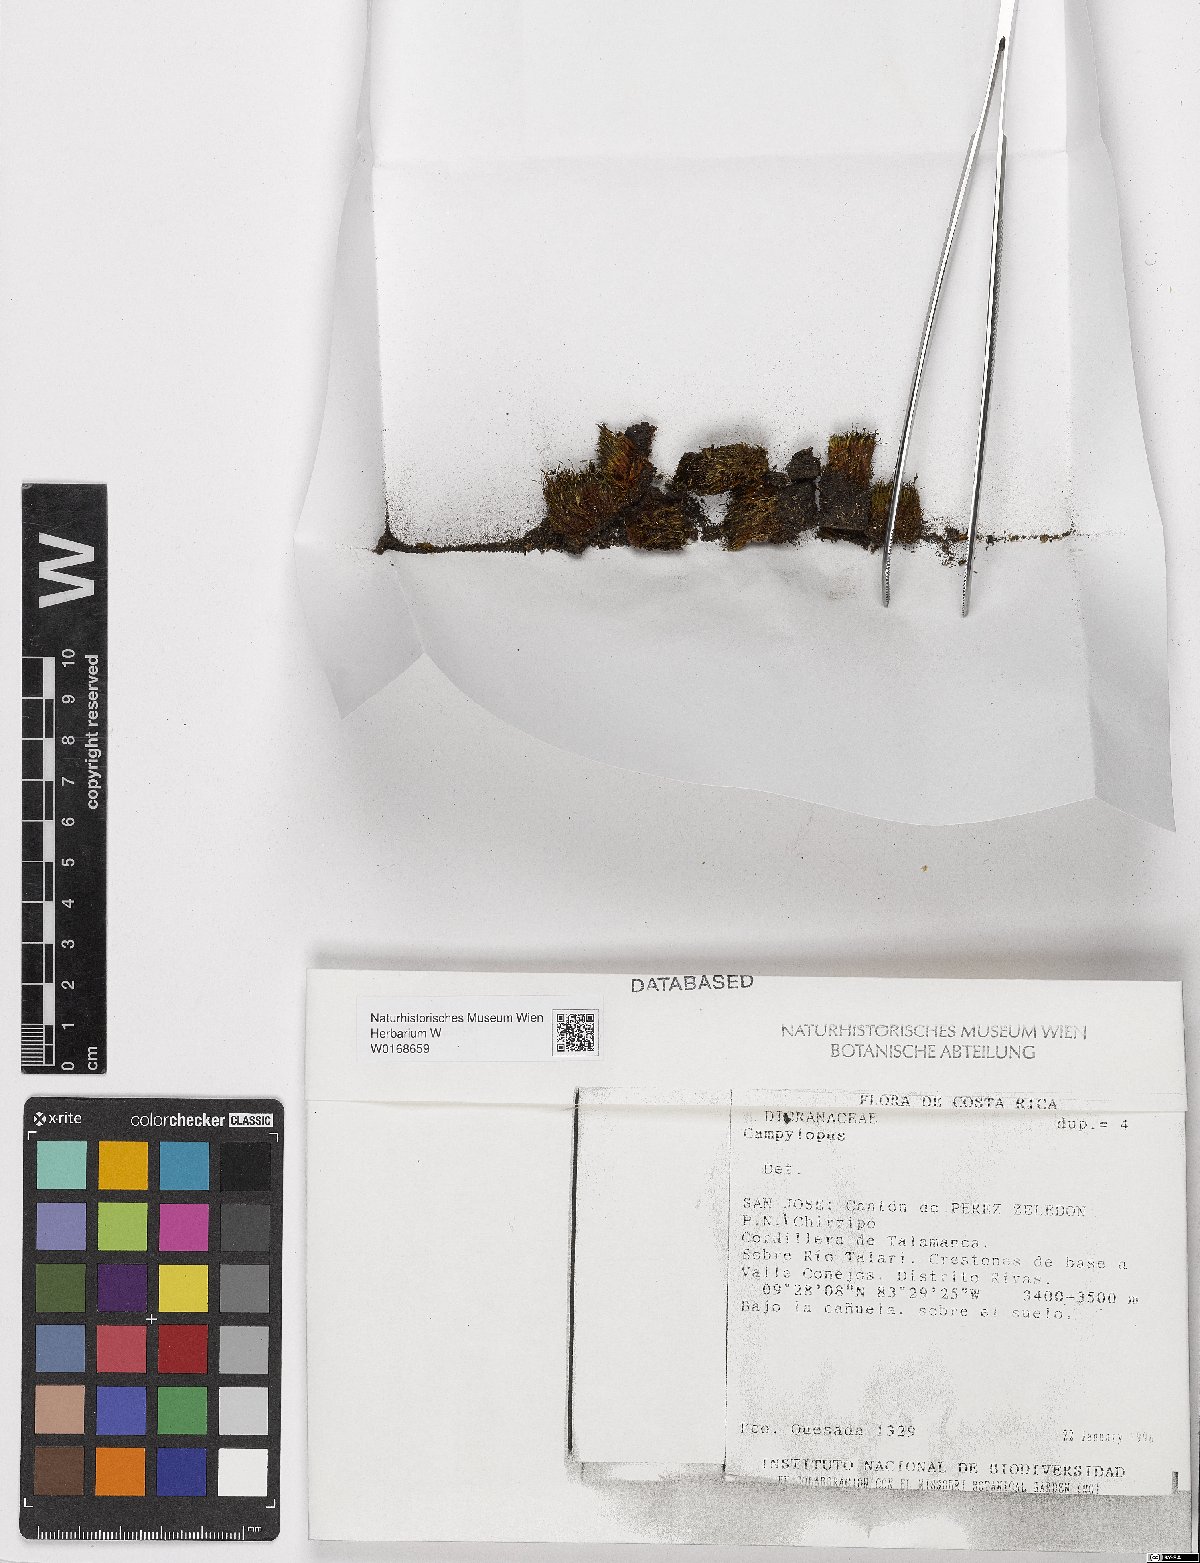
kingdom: Plantae
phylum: Bryophyta
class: Bryopsida
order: Dicranales
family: Leucobryaceae
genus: Campylopus
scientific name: Campylopus
